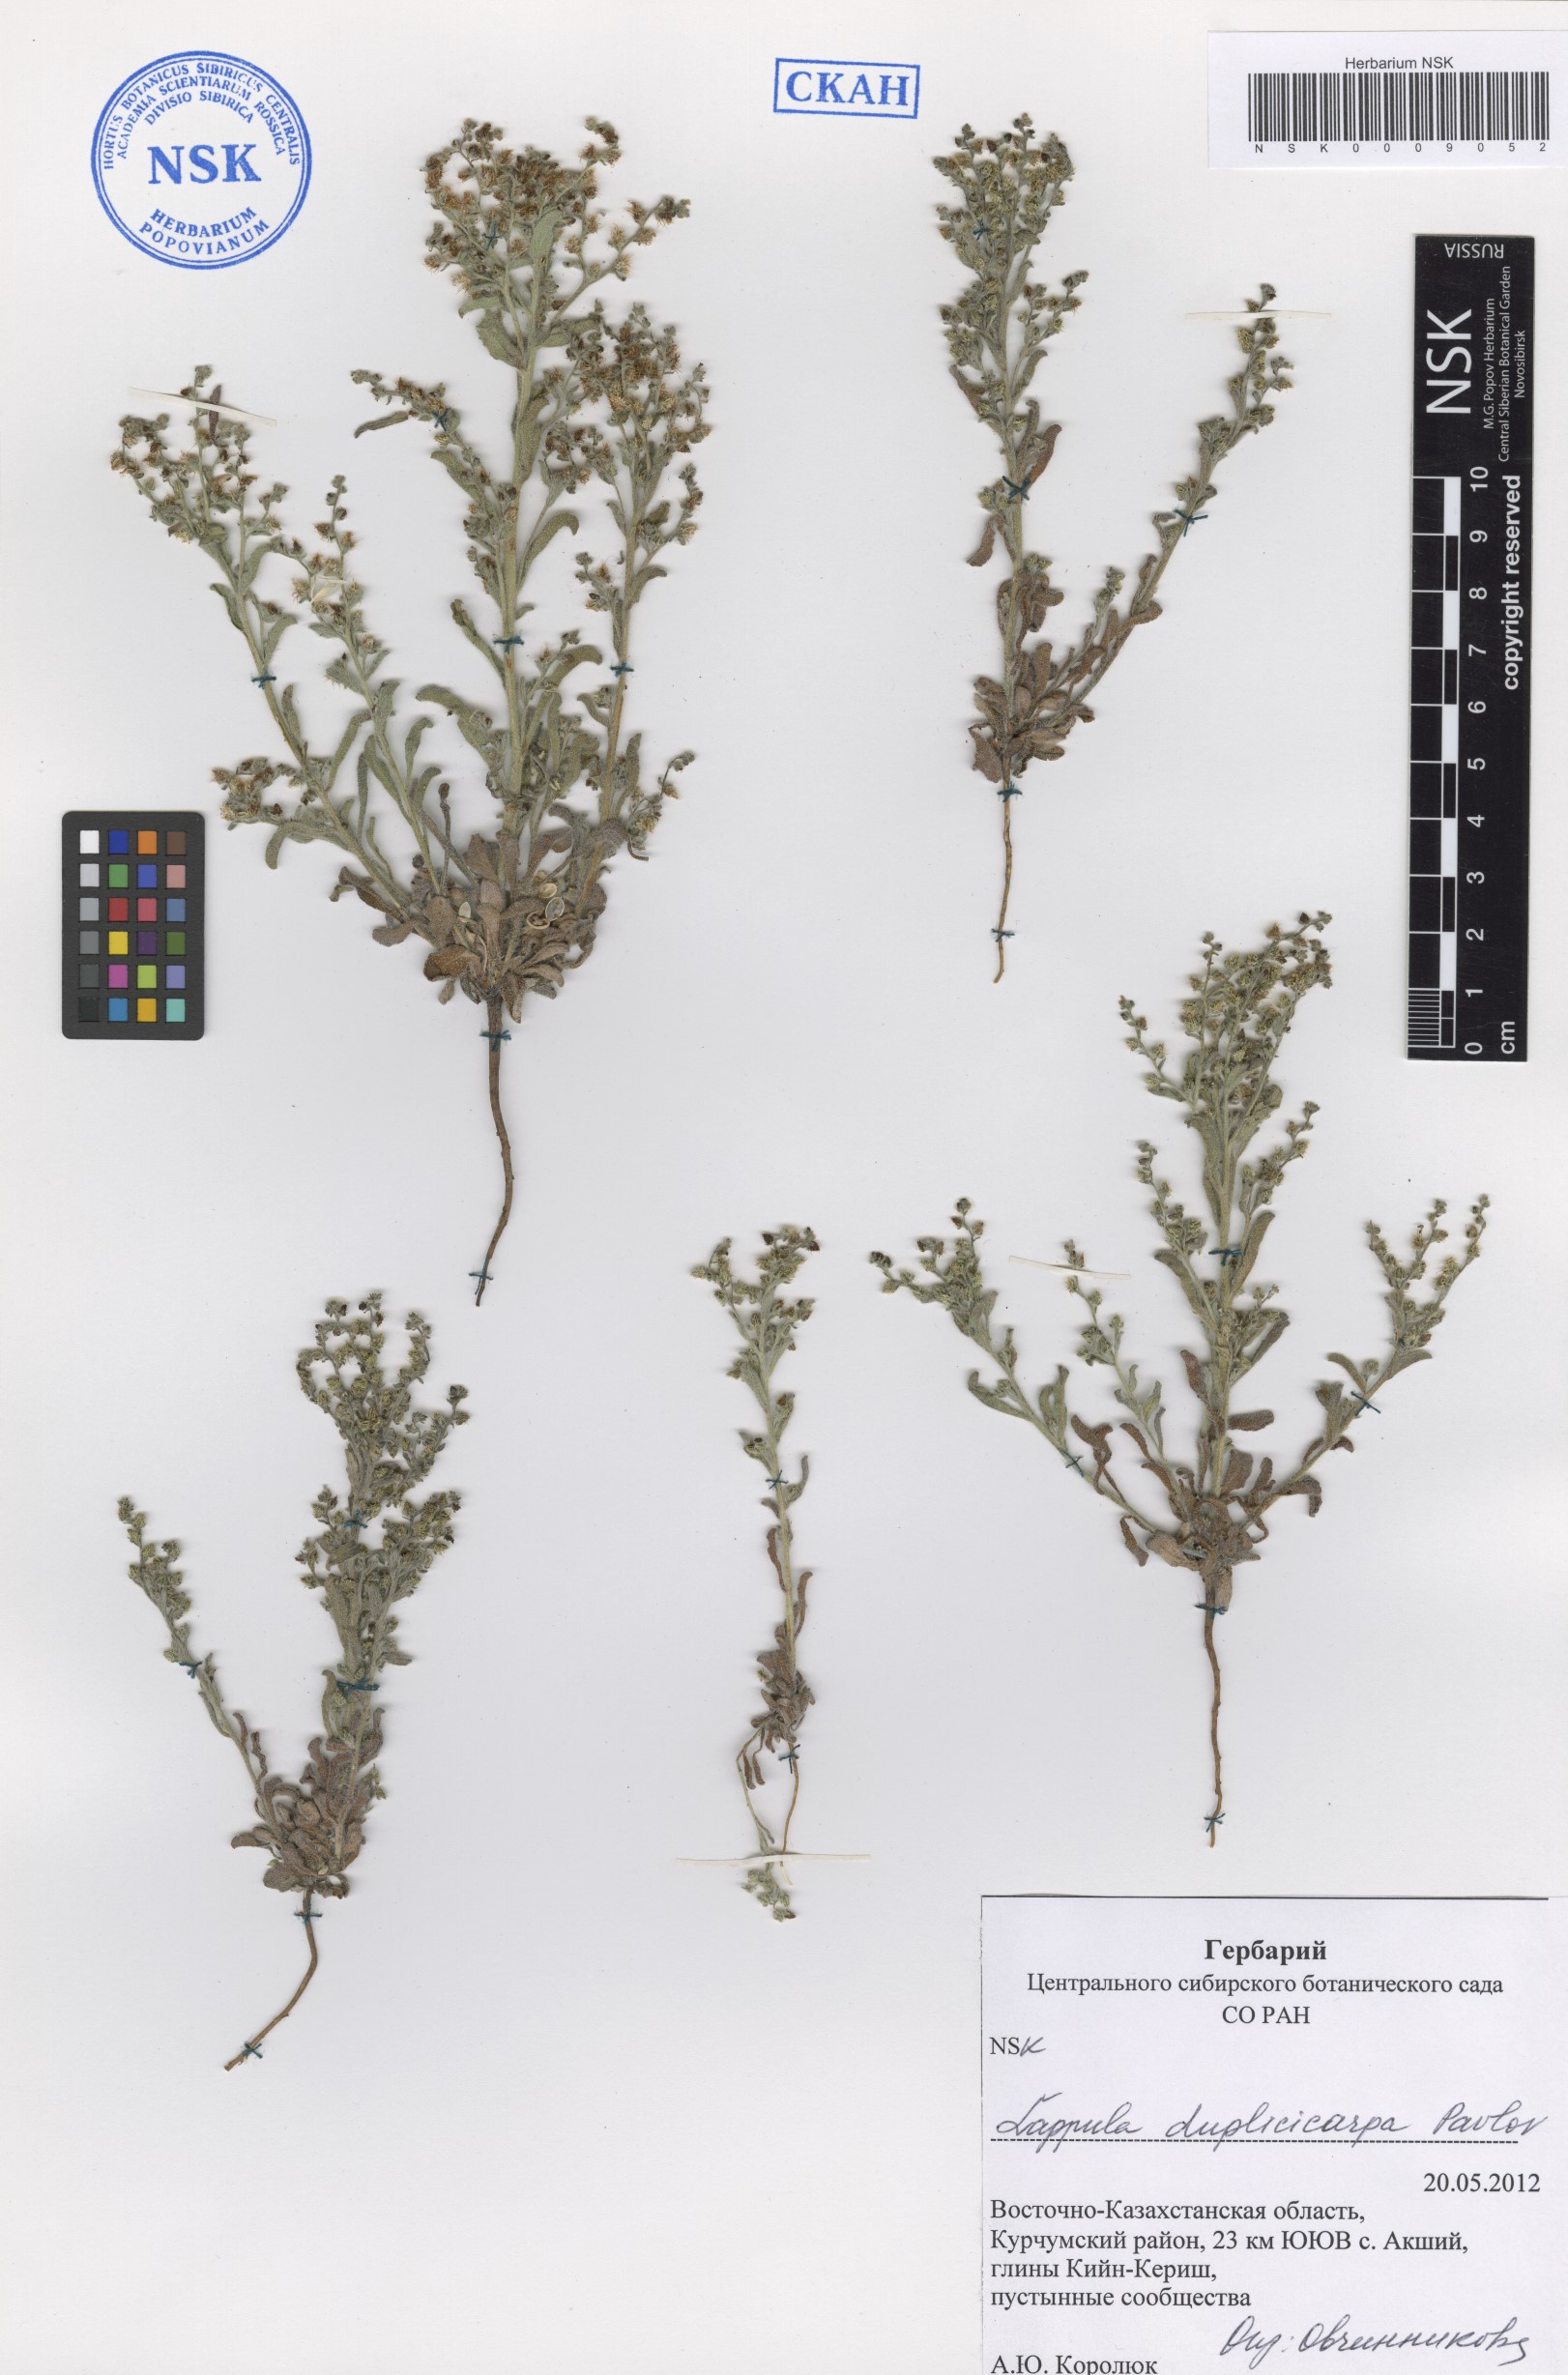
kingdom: Plantae
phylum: Tracheophyta
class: Magnoliopsida
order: Boraginales
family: Boraginaceae
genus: Lappula
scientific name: Lappula duplicicarpa
